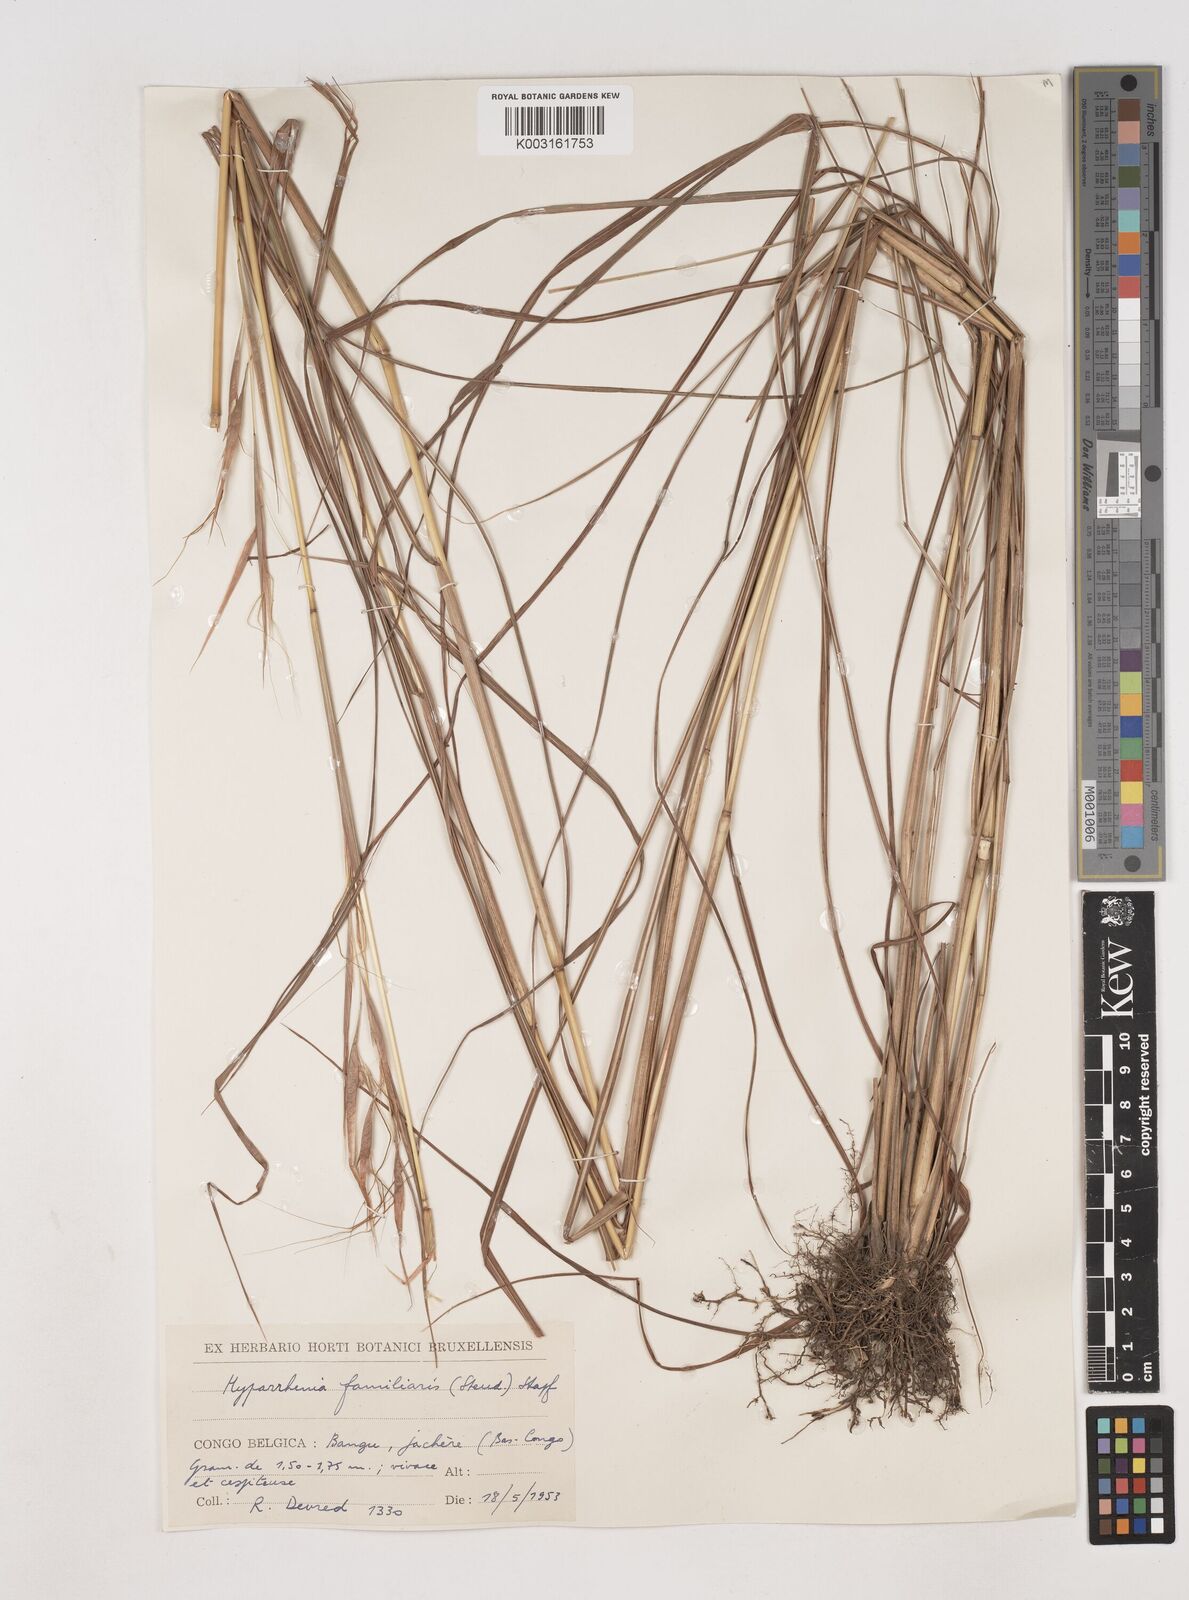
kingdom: Plantae
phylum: Tracheophyta
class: Liliopsida
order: Poales
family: Poaceae
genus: Hyparrhenia
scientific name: Hyparrhenia familiaris
